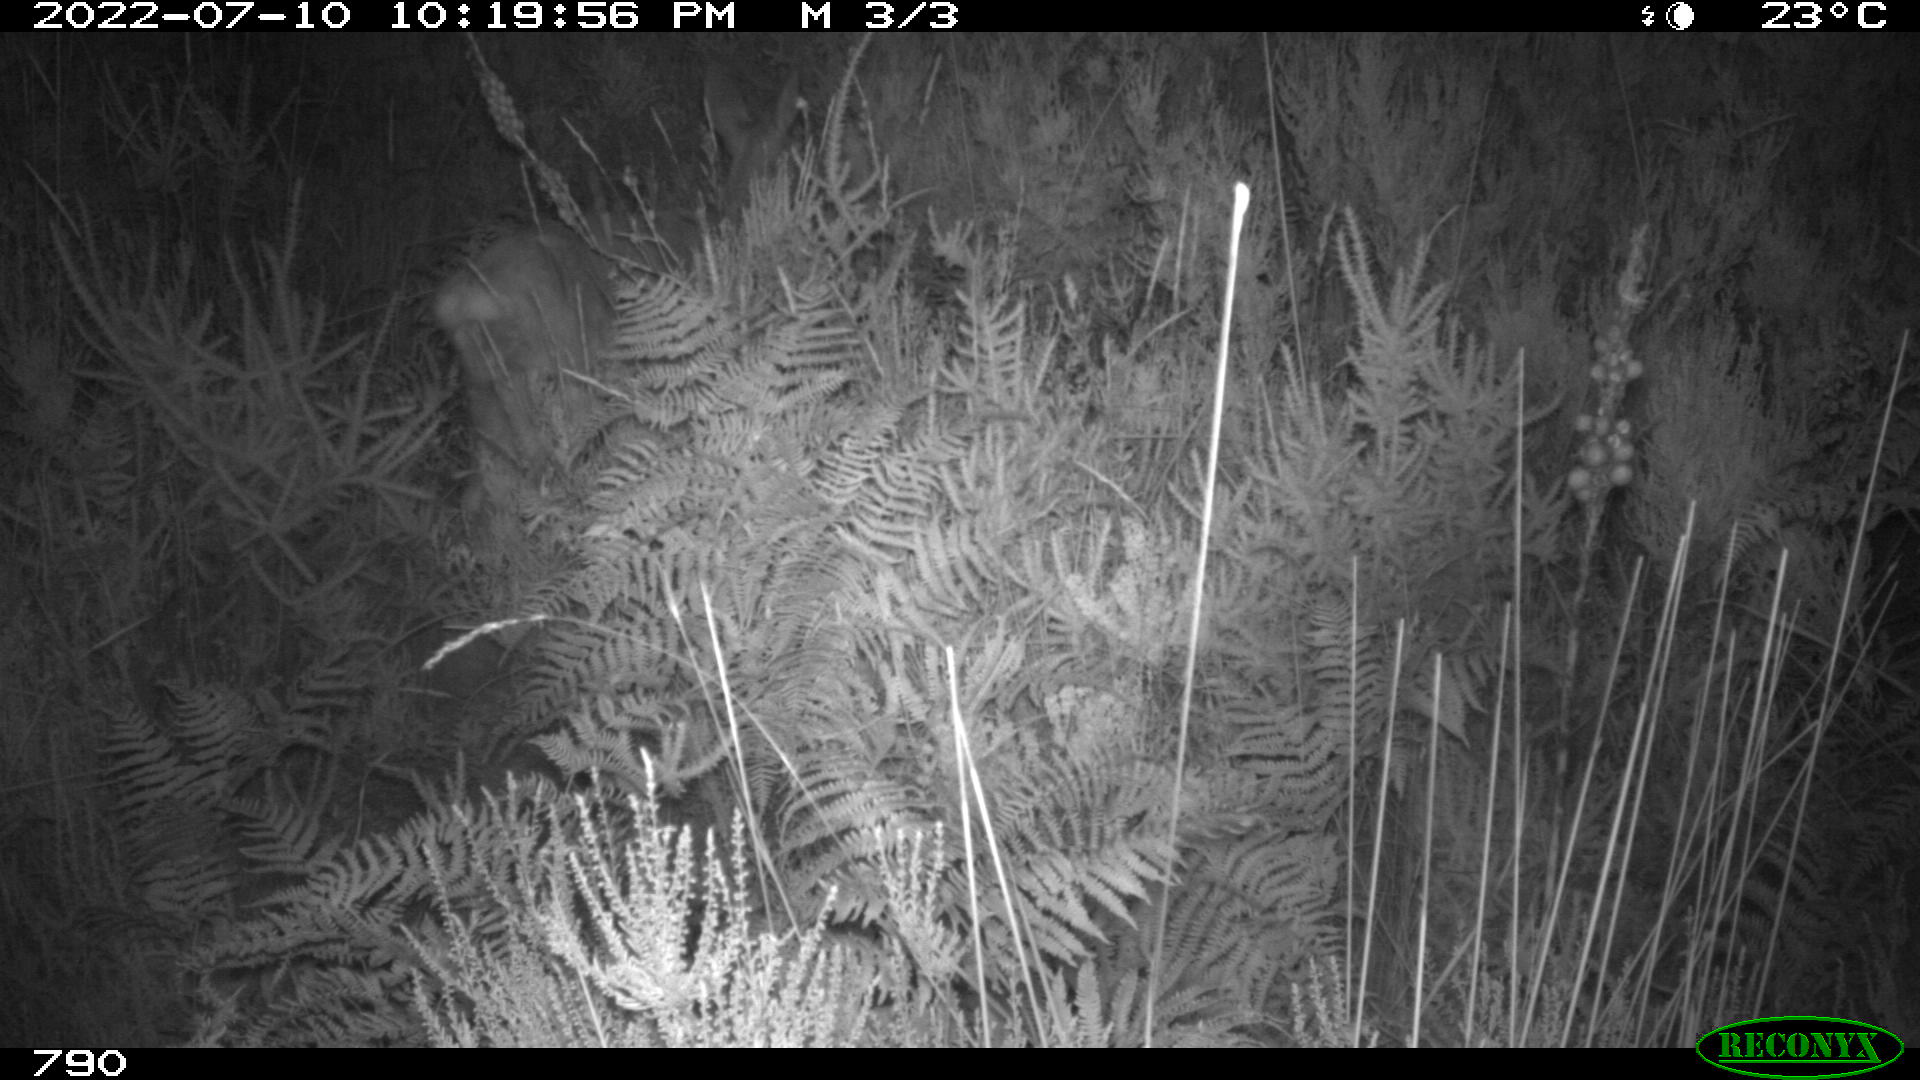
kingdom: Animalia
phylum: Chordata
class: Mammalia
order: Artiodactyla
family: Cervidae
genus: Capreolus
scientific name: Capreolus capreolus
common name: Western roe deer
